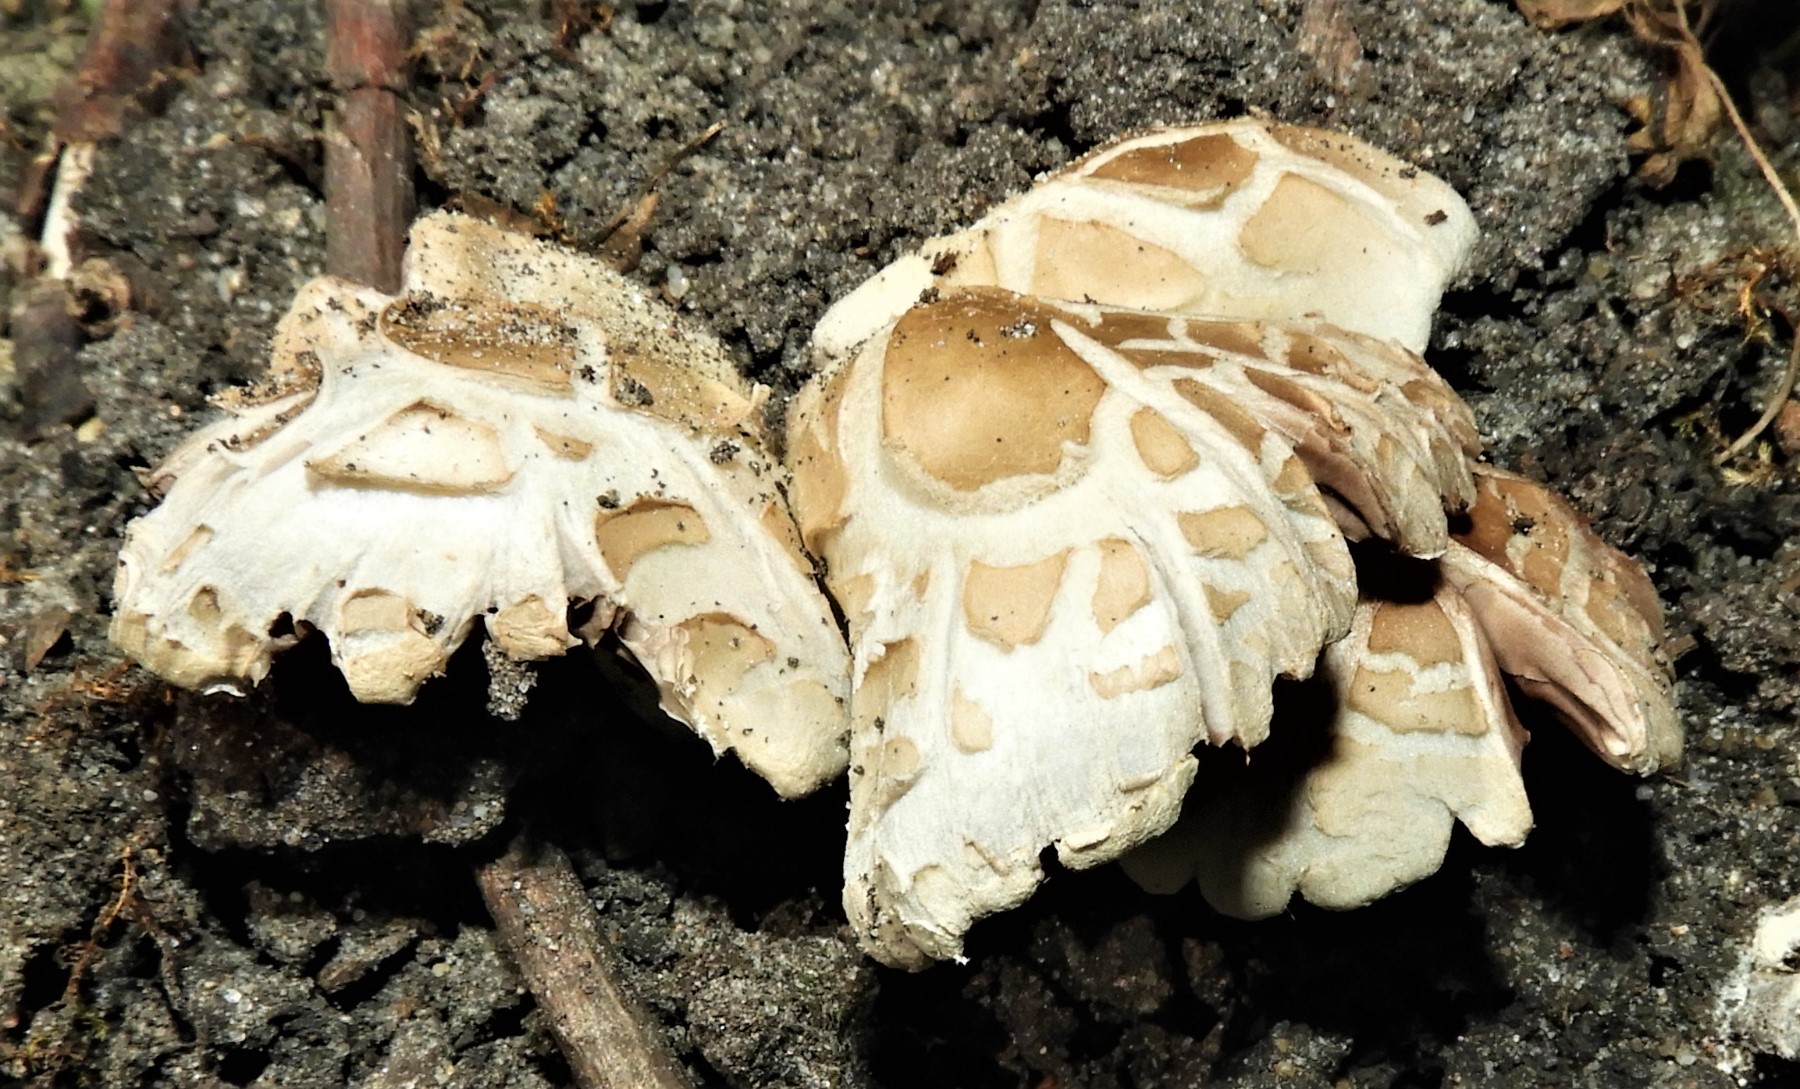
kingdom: Fungi
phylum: Basidiomycota
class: Agaricomycetes
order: Agaricales
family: Strophariaceae
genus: Agrocybe
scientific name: Agrocybe praecox
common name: tidlig agerhat
